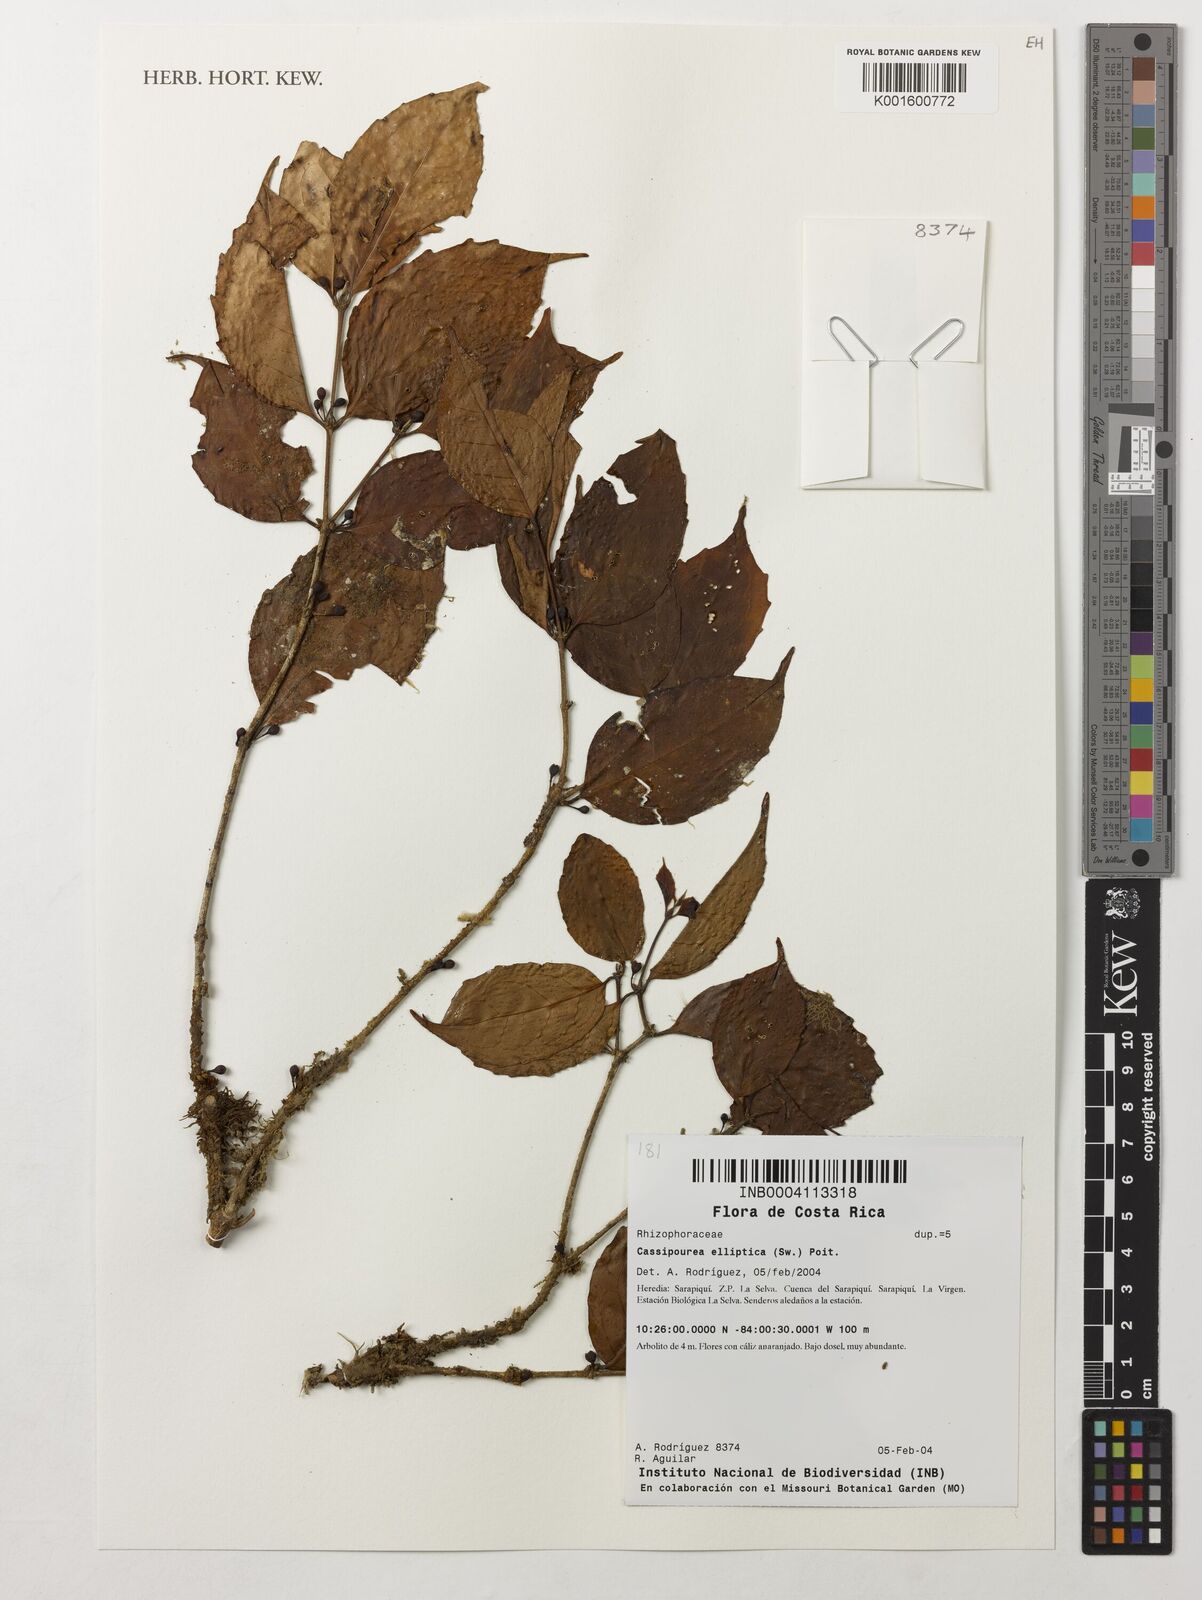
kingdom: Plantae
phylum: Tracheophyta
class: Magnoliopsida
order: Malpighiales
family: Rhizophoraceae
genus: Cassipourea
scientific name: Cassipourea elliptica
